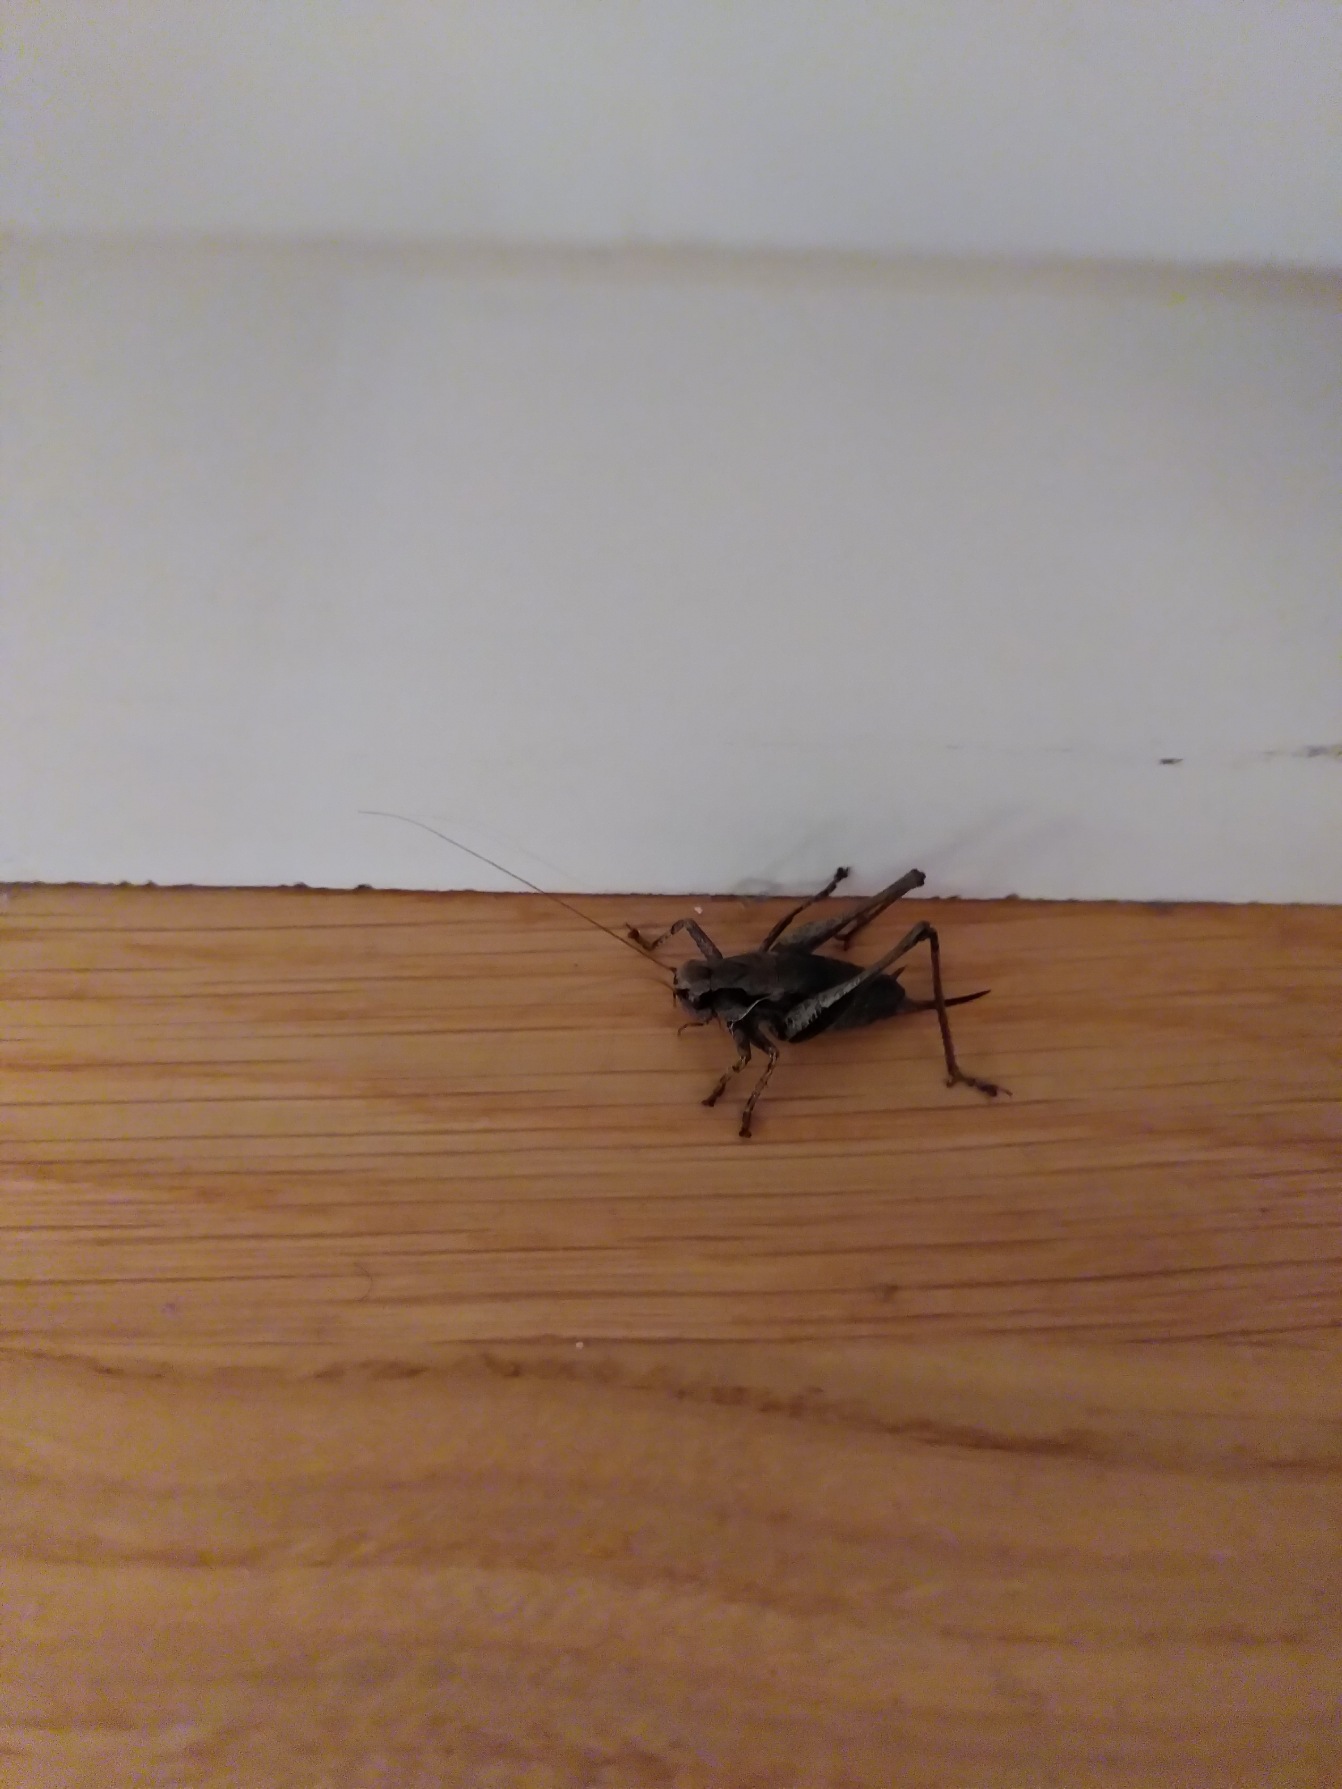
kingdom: Animalia
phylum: Arthropoda
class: Insecta
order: Orthoptera
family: Tettigoniidae
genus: Pholidoptera
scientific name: Pholidoptera griseoaptera
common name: Buskgræshoppe
